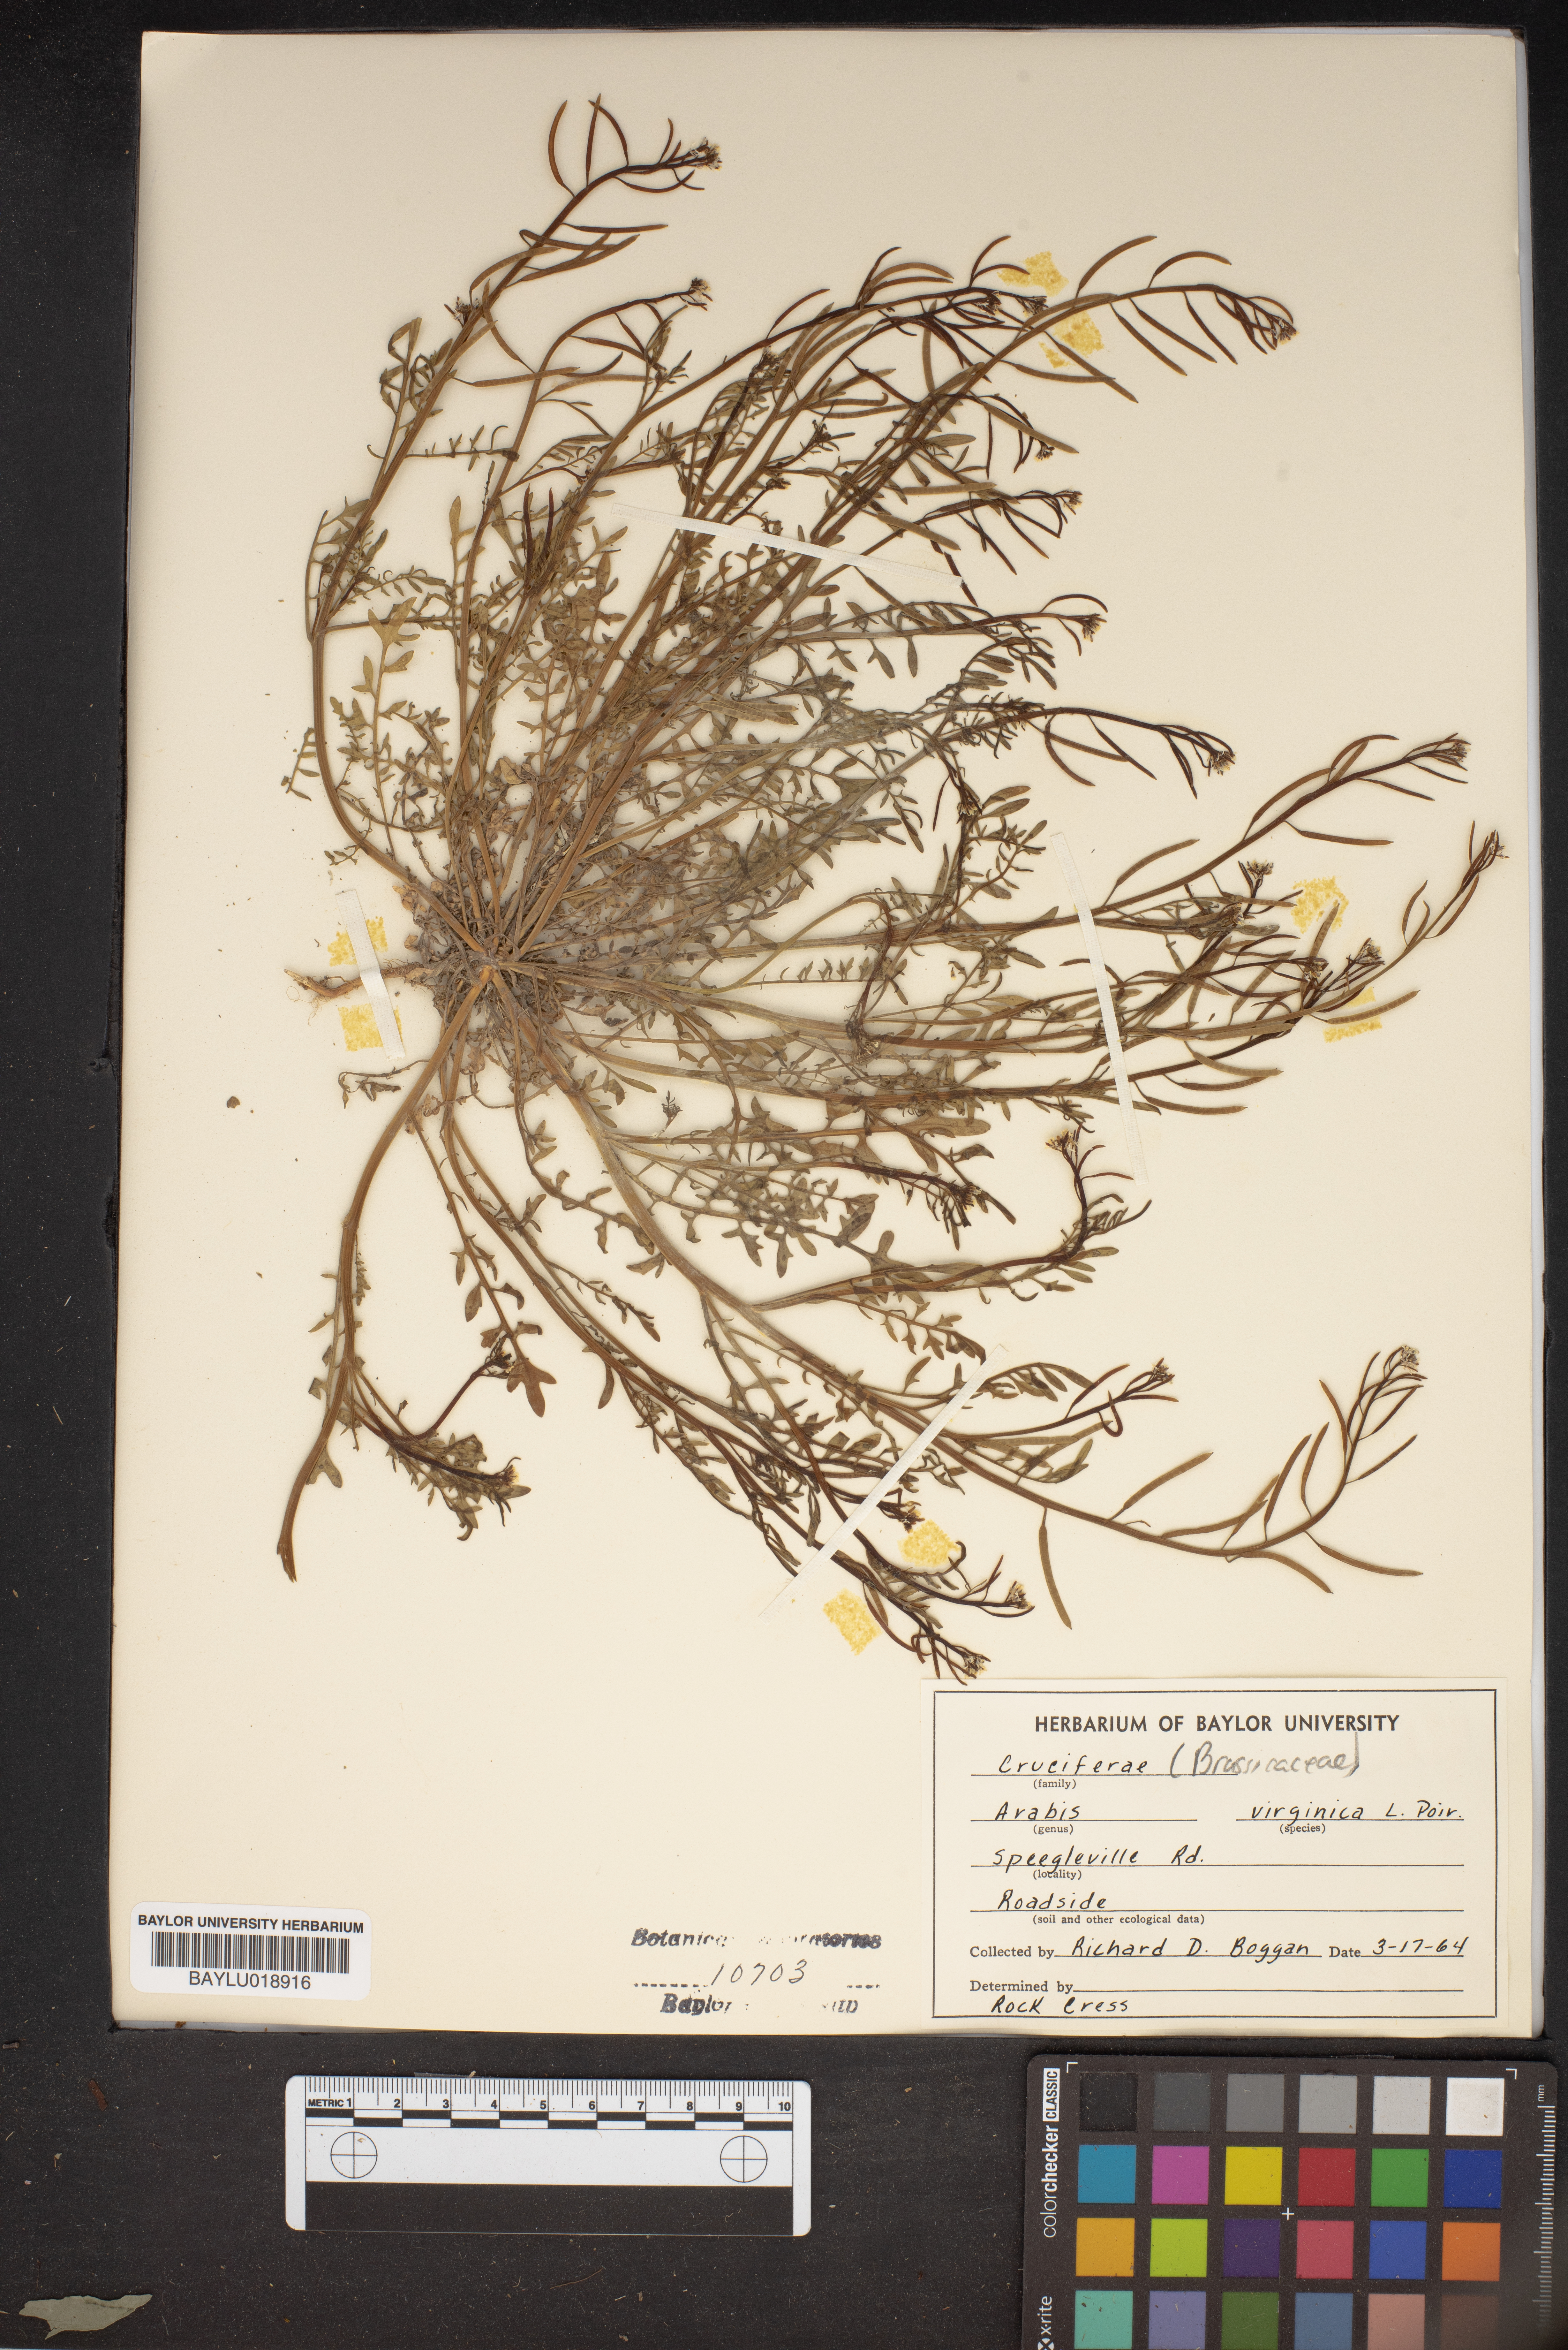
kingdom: Plantae
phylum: Tracheophyta
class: Magnoliopsida
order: Brassicales
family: Brassicaceae
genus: Planodes
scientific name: Planodes virginicum
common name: Virginia cress
